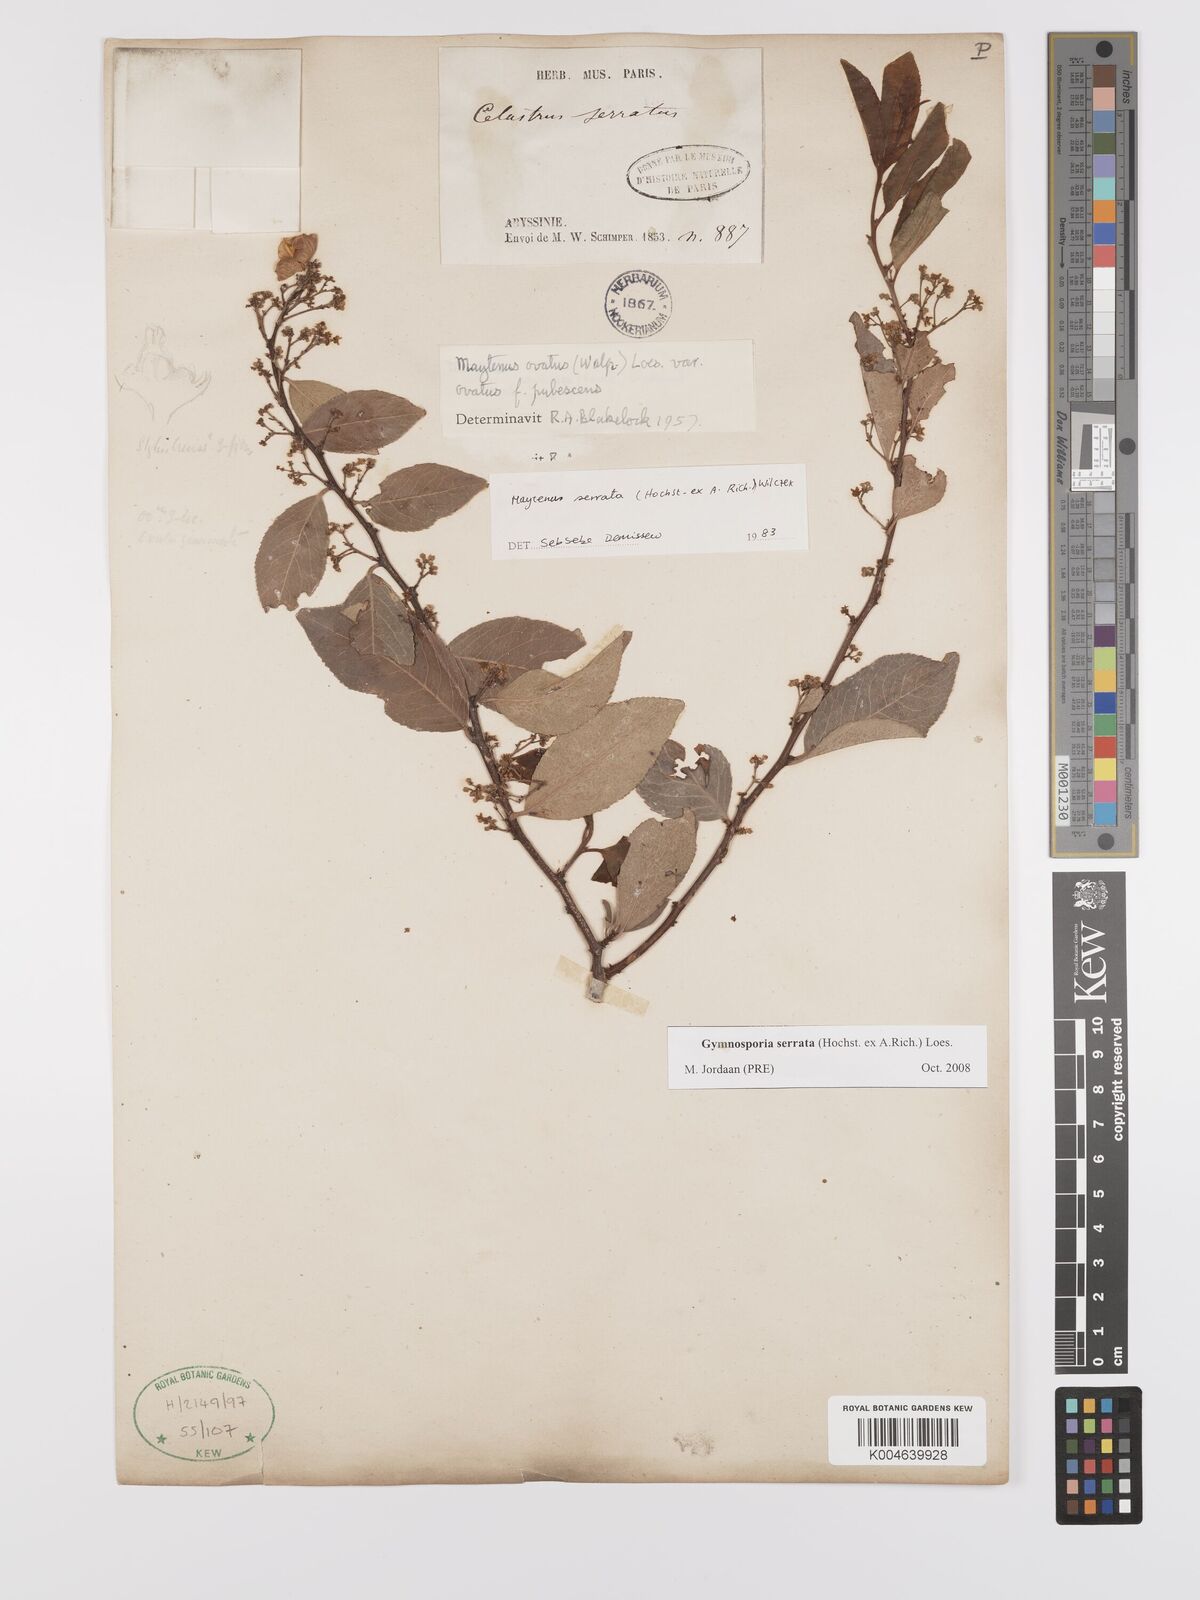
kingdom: Plantae
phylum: Tracheophyta
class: Magnoliopsida
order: Celastrales
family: Celastraceae
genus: Gymnosporia
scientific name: Gymnosporia serrata
